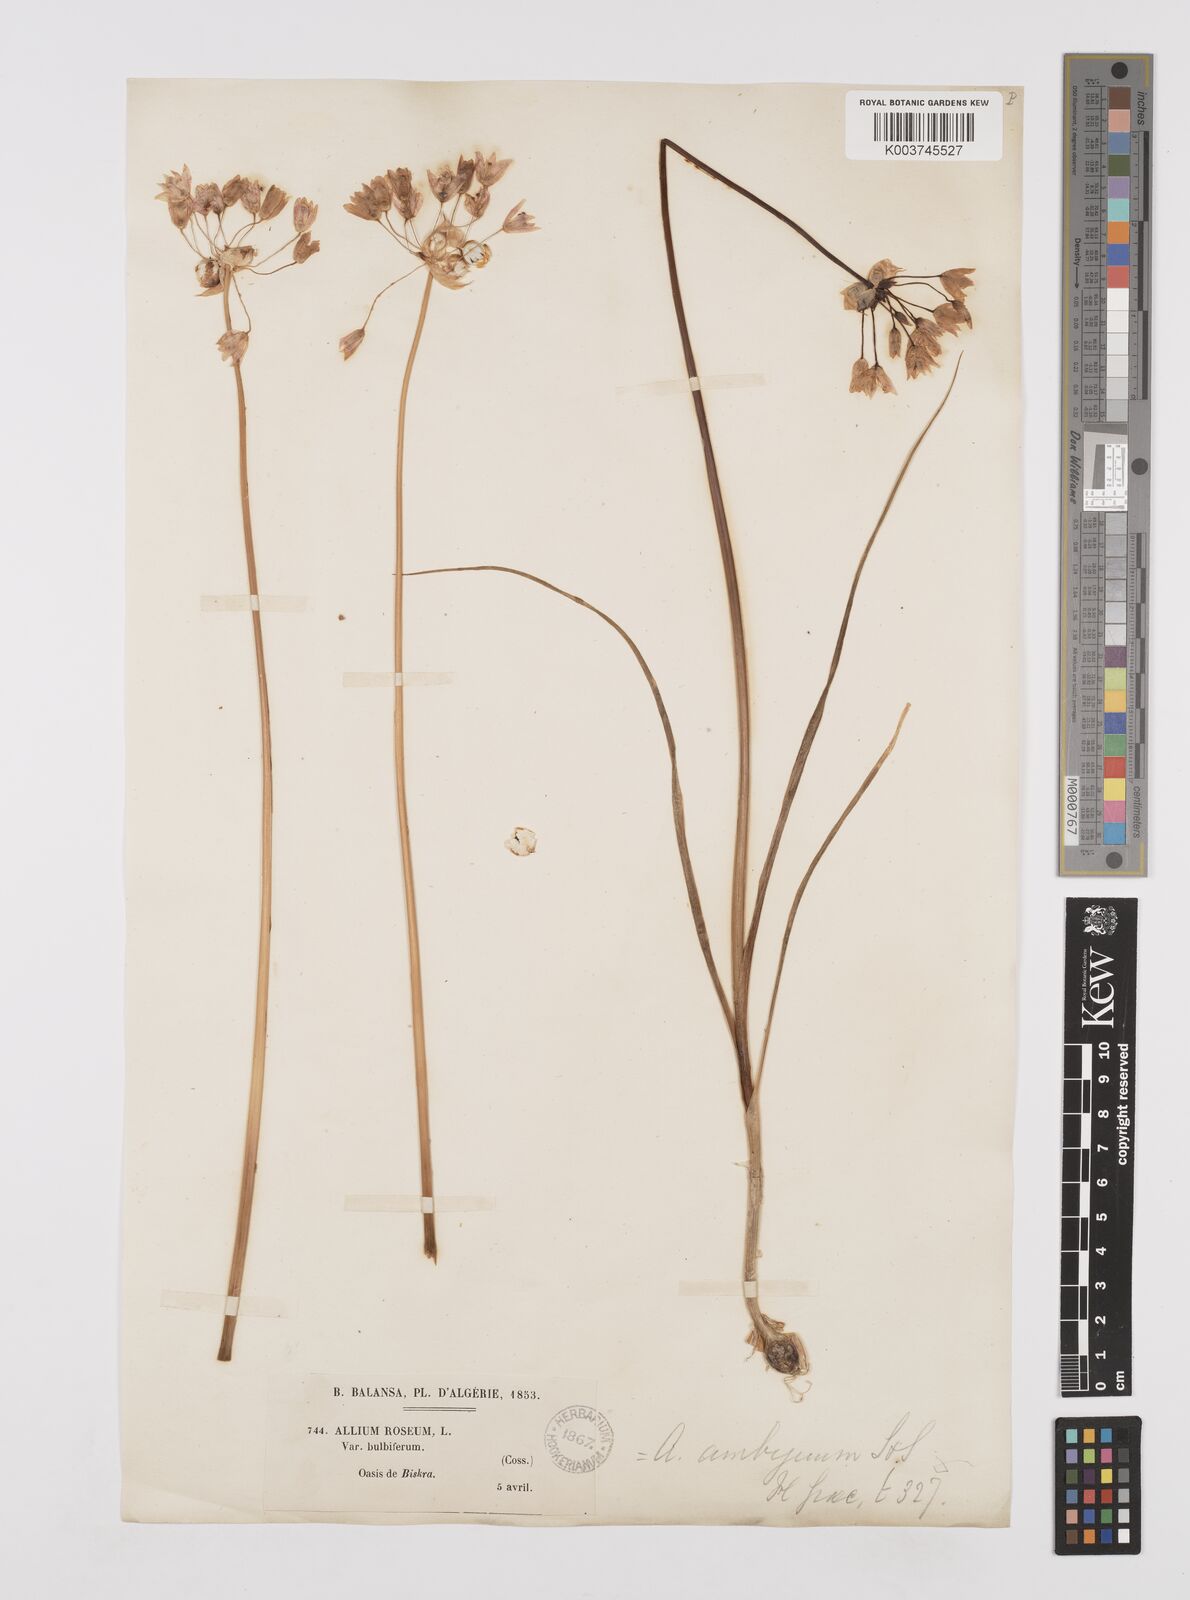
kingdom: Plantae
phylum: Tracheophyta
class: Liliopsida
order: Asparagales
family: Amaryllidaceae
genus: Allium
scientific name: Allium roseum
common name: Rosy garlic
